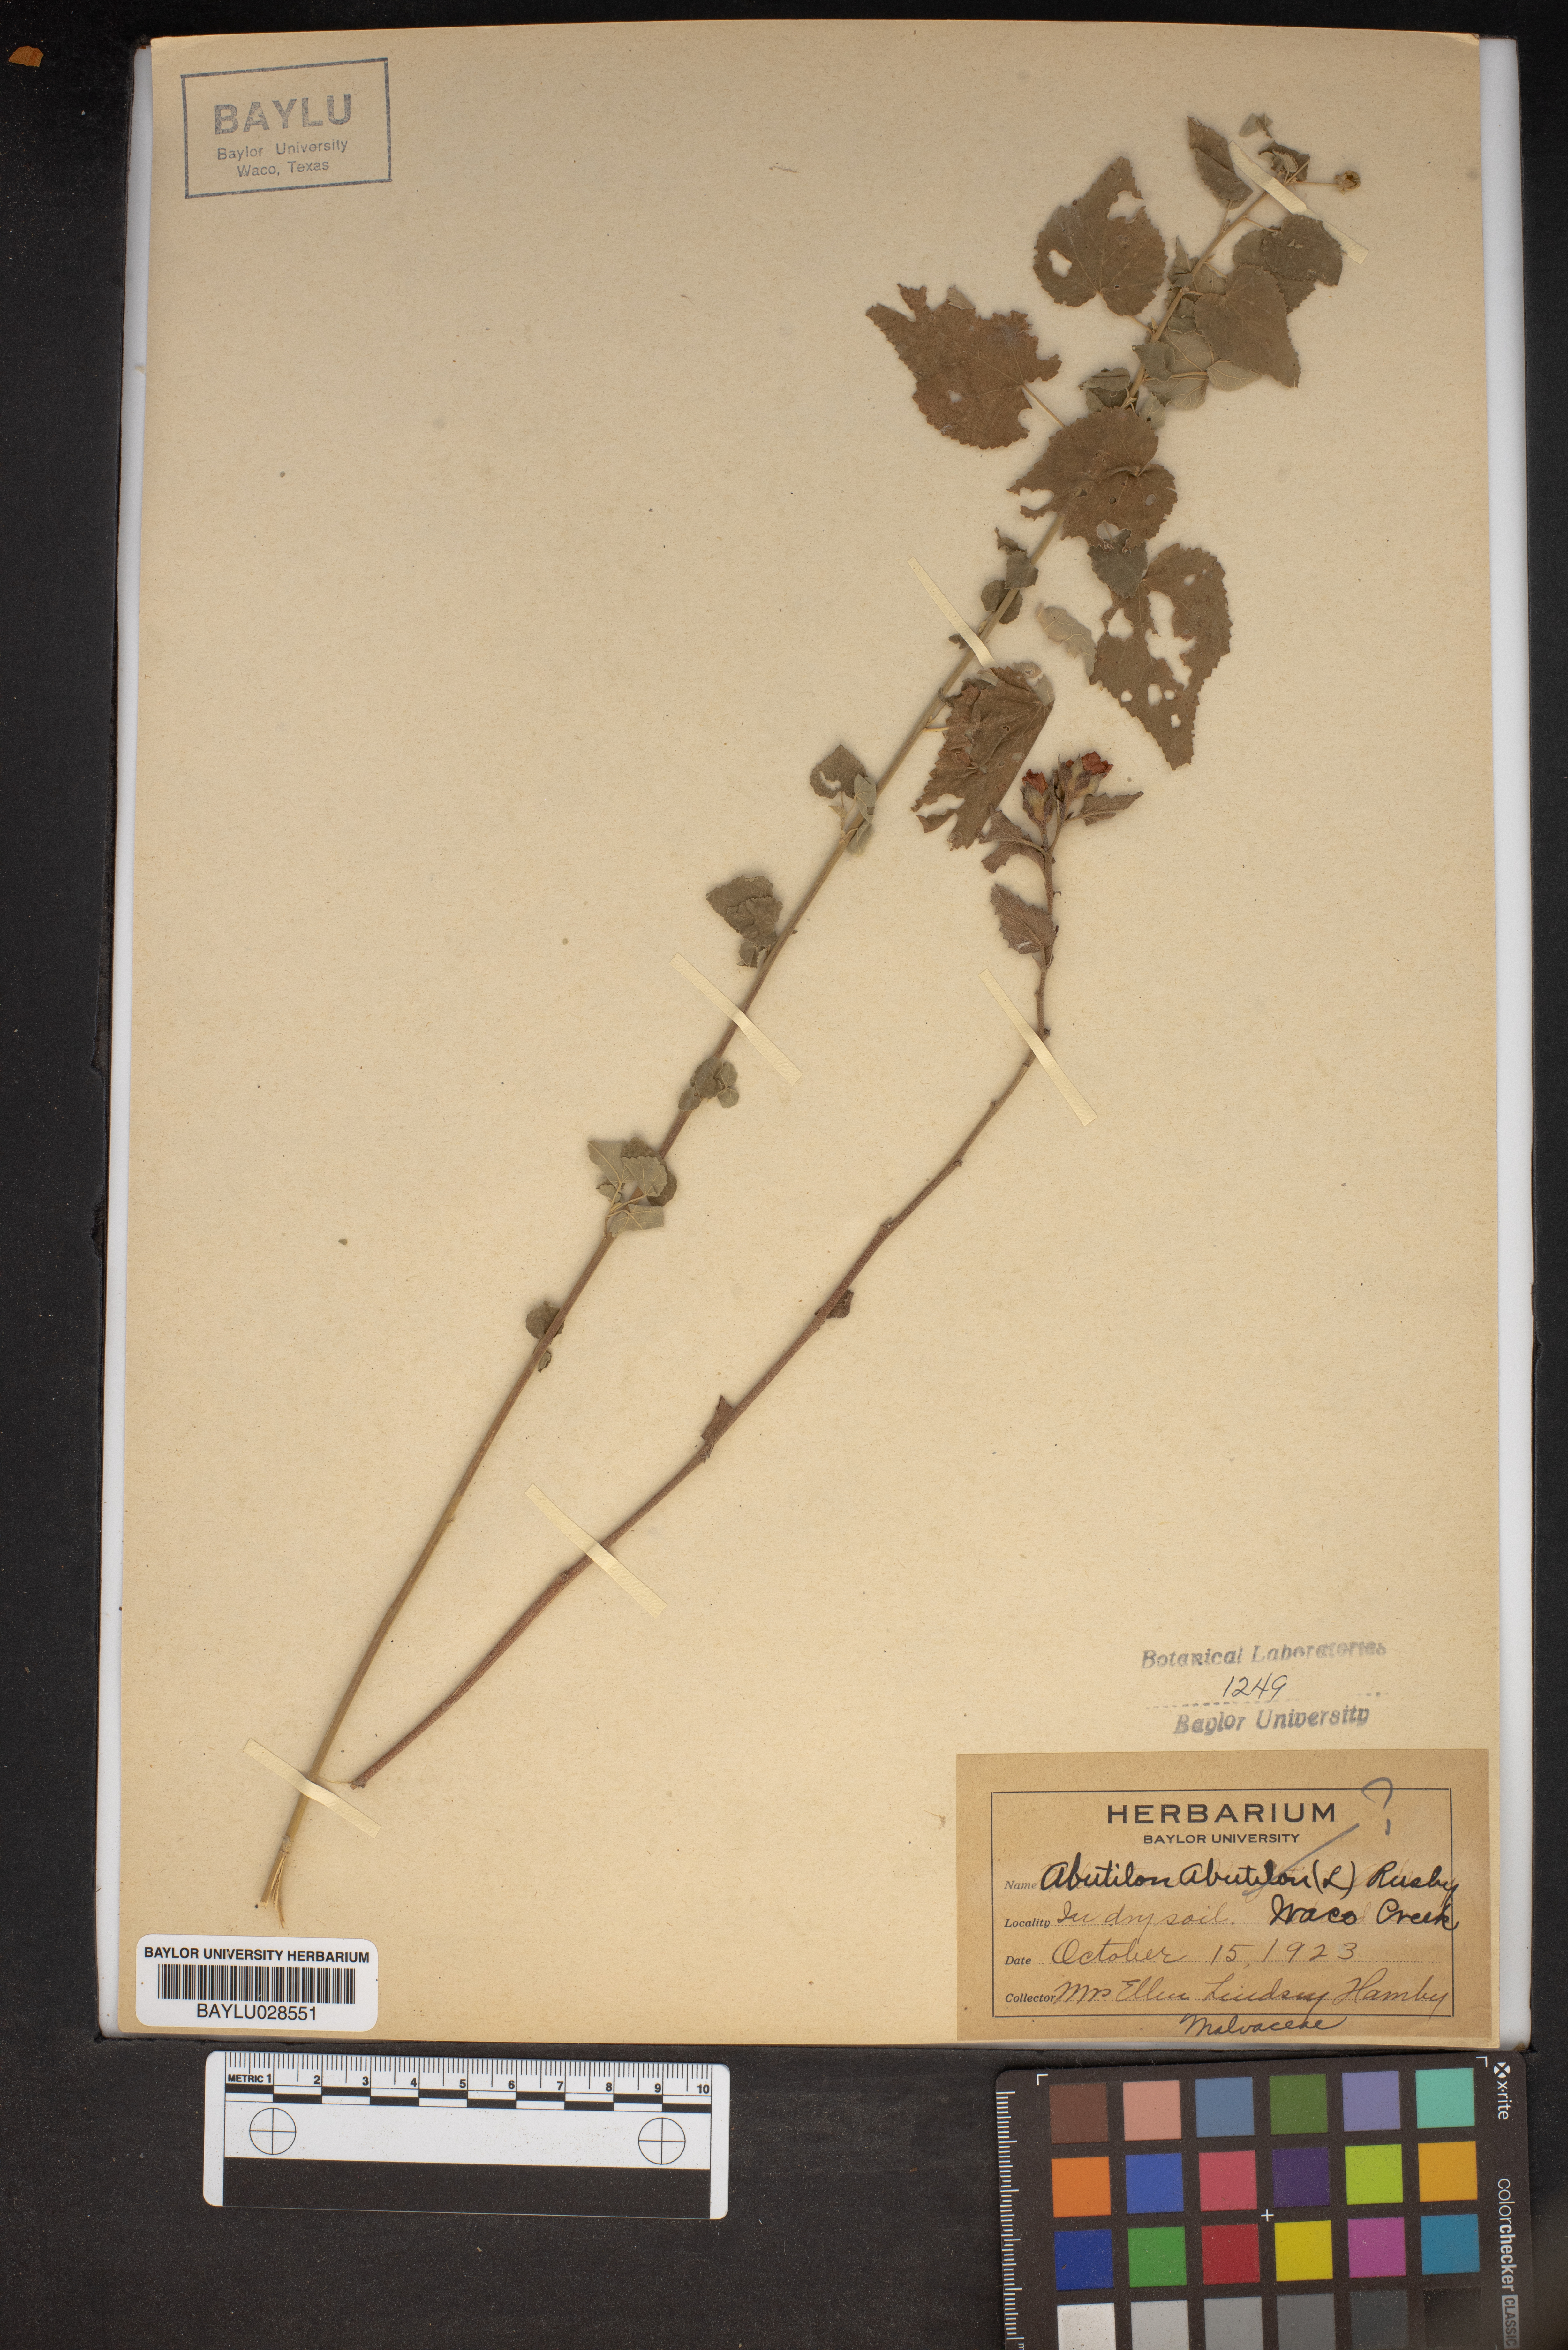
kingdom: Plantae
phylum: Tracheophyta
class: Magnoliopsida
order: Malvales
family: Malvaceae
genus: Abutilon
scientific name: Abutilon theophrasti
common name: Velvetleaf
